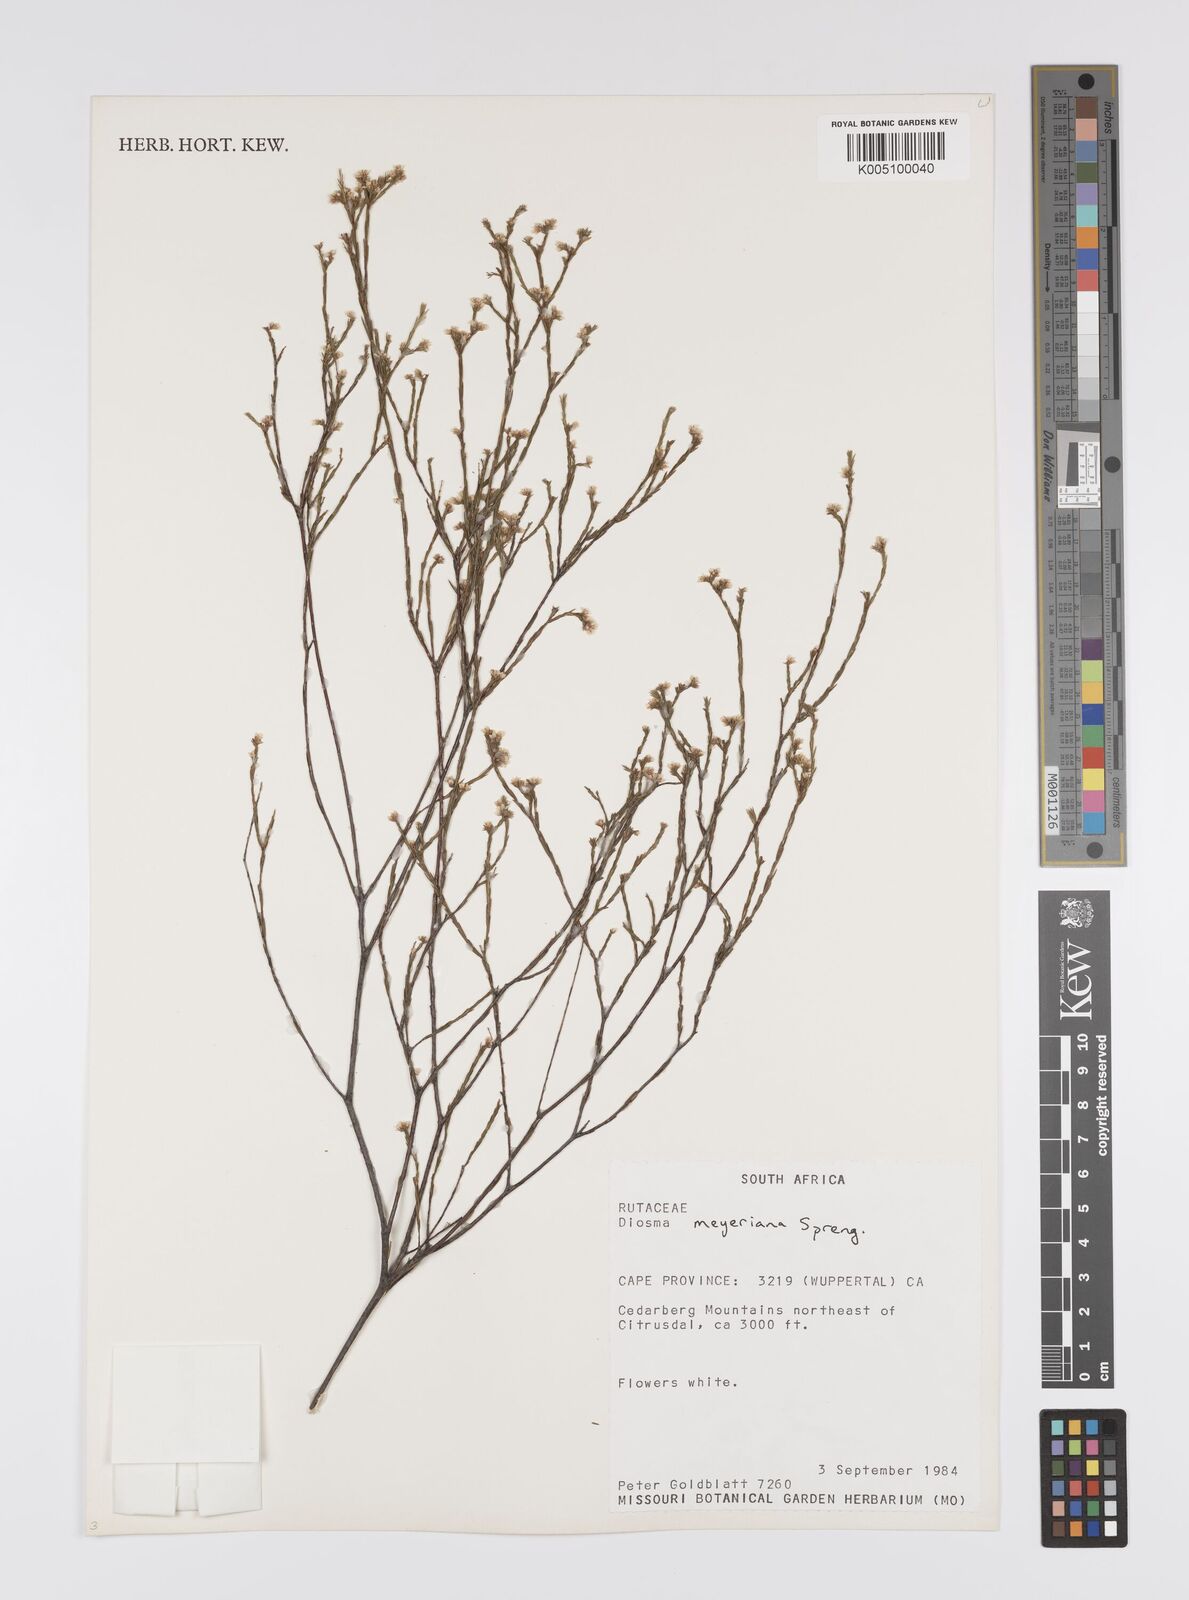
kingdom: Plantae
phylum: Tracheophyta
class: Magnoliopsida
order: Sapindales
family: Rutaceae
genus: Diosma
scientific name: Diosma
